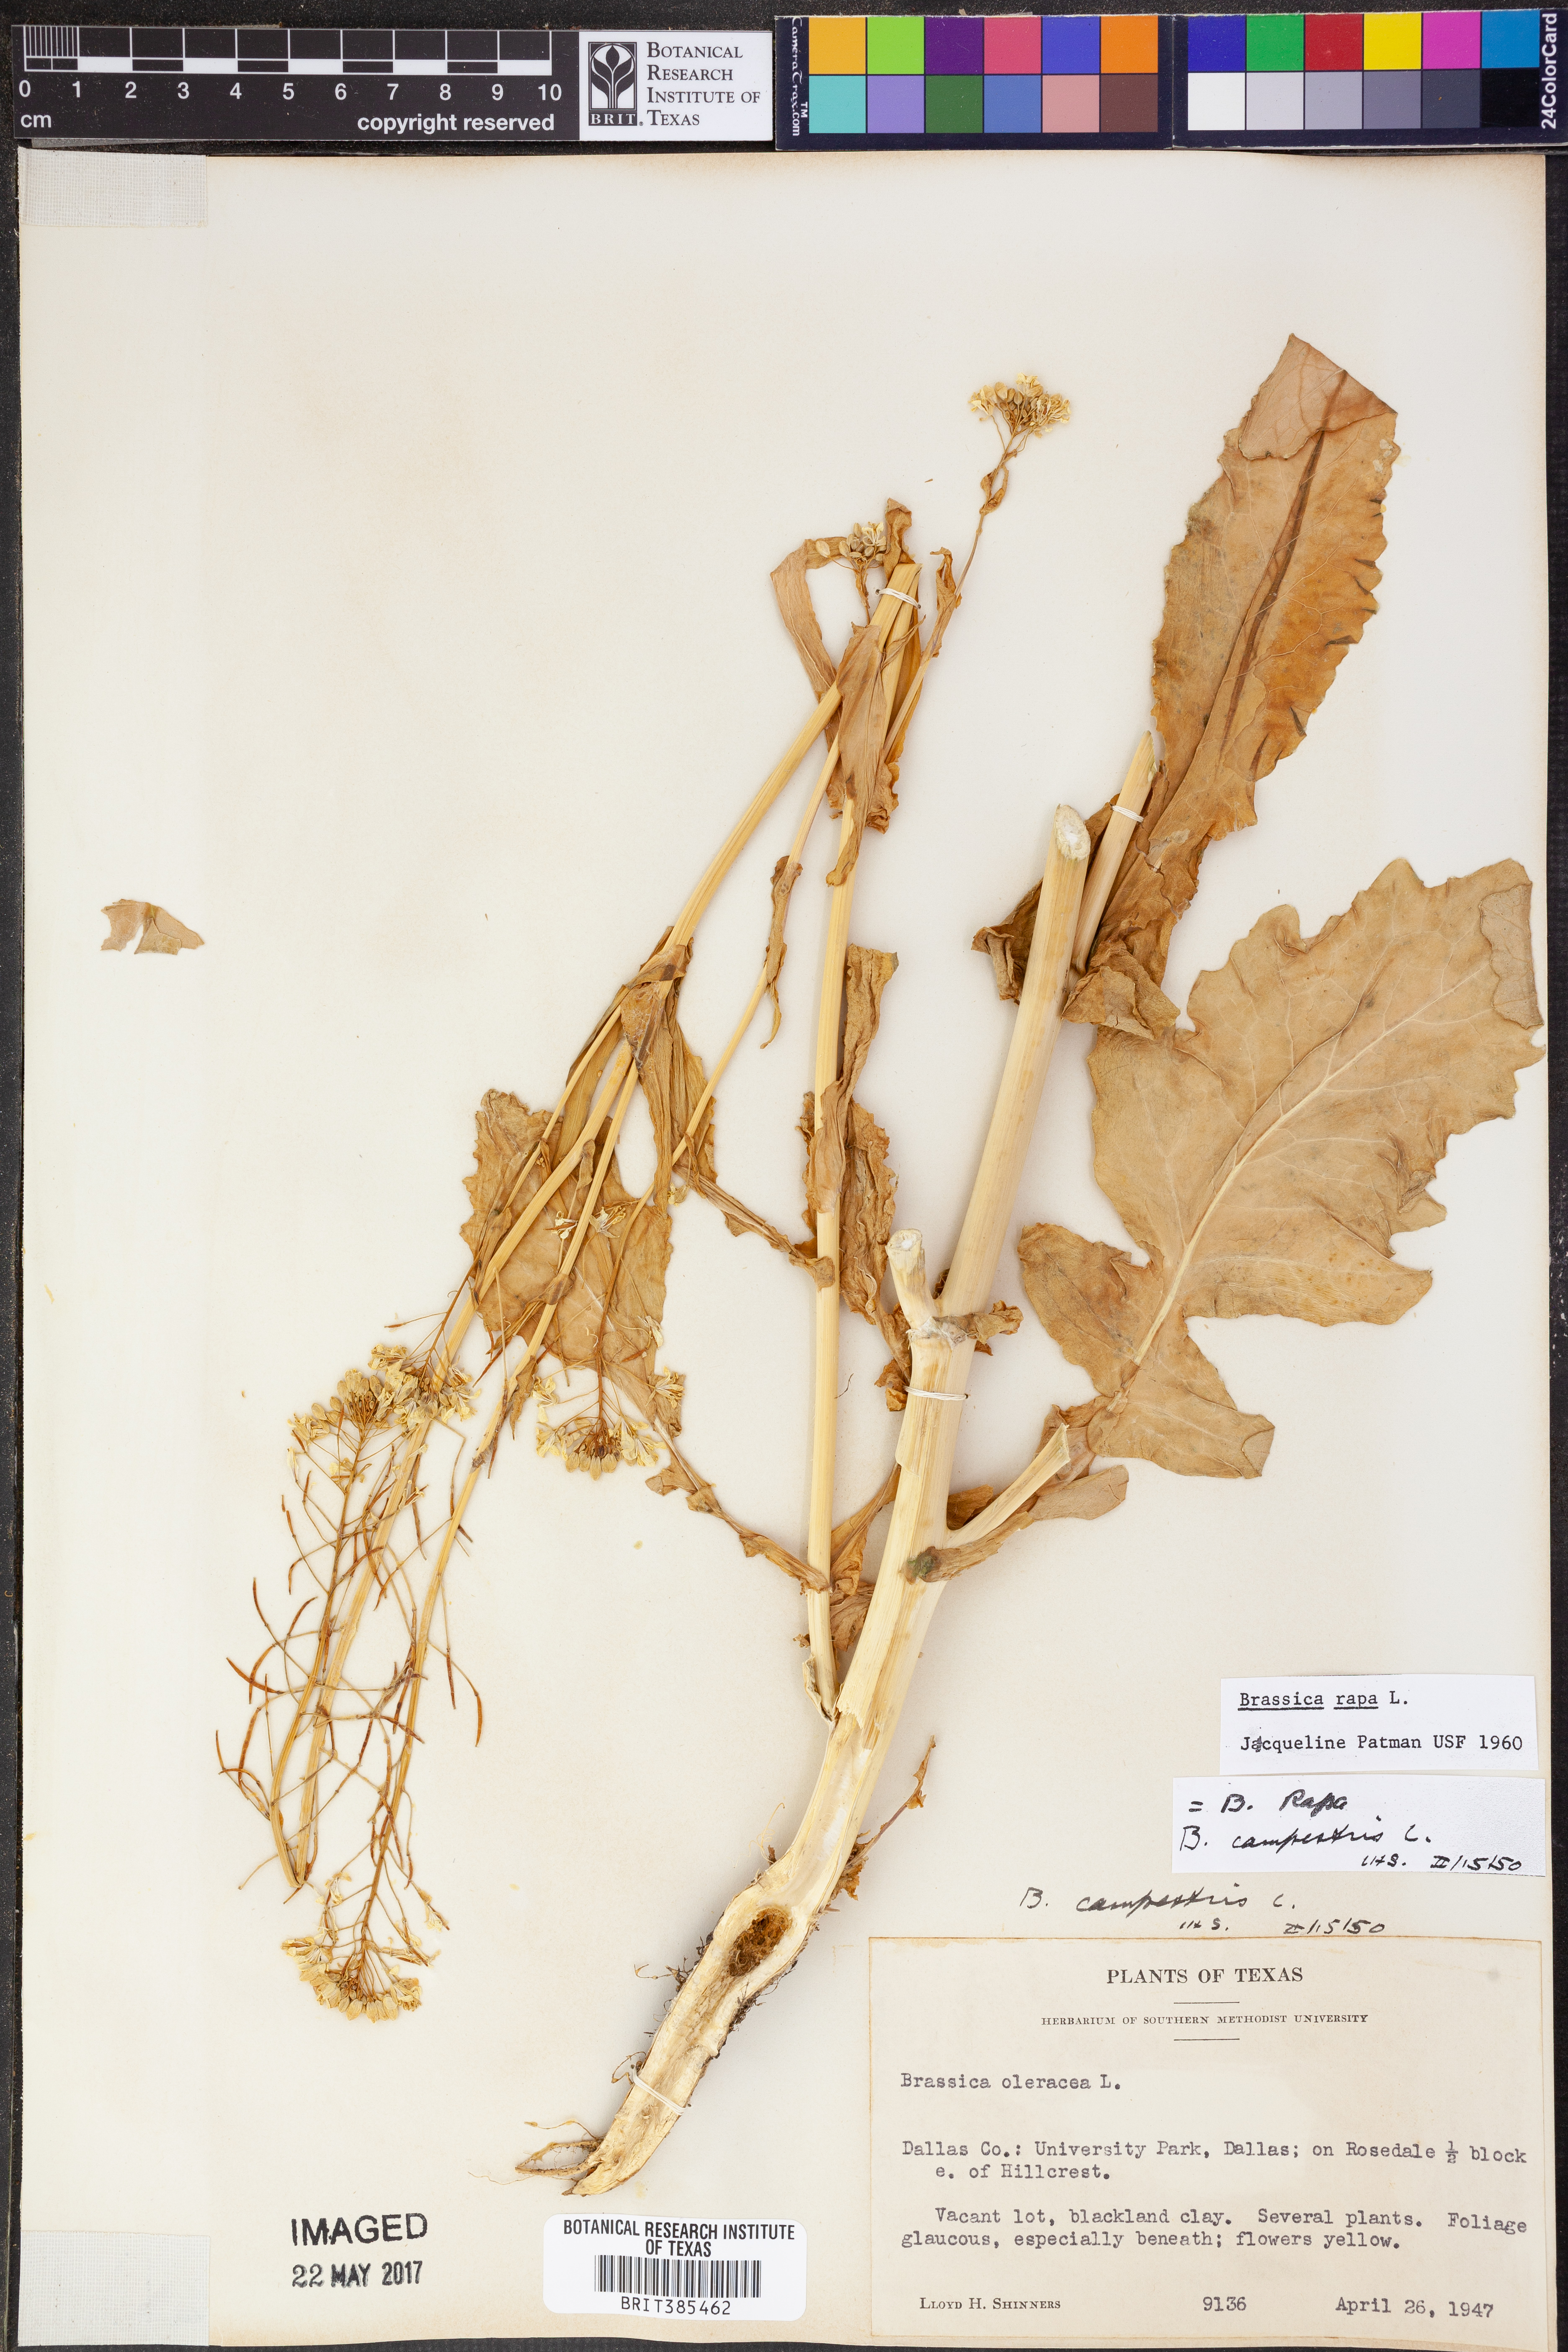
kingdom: Plantae
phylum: Tracheophyta
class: Magnoliopsida
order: Brassicales
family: Brassicaceae
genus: Brassica
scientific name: Brassica rapa
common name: Field mustard
